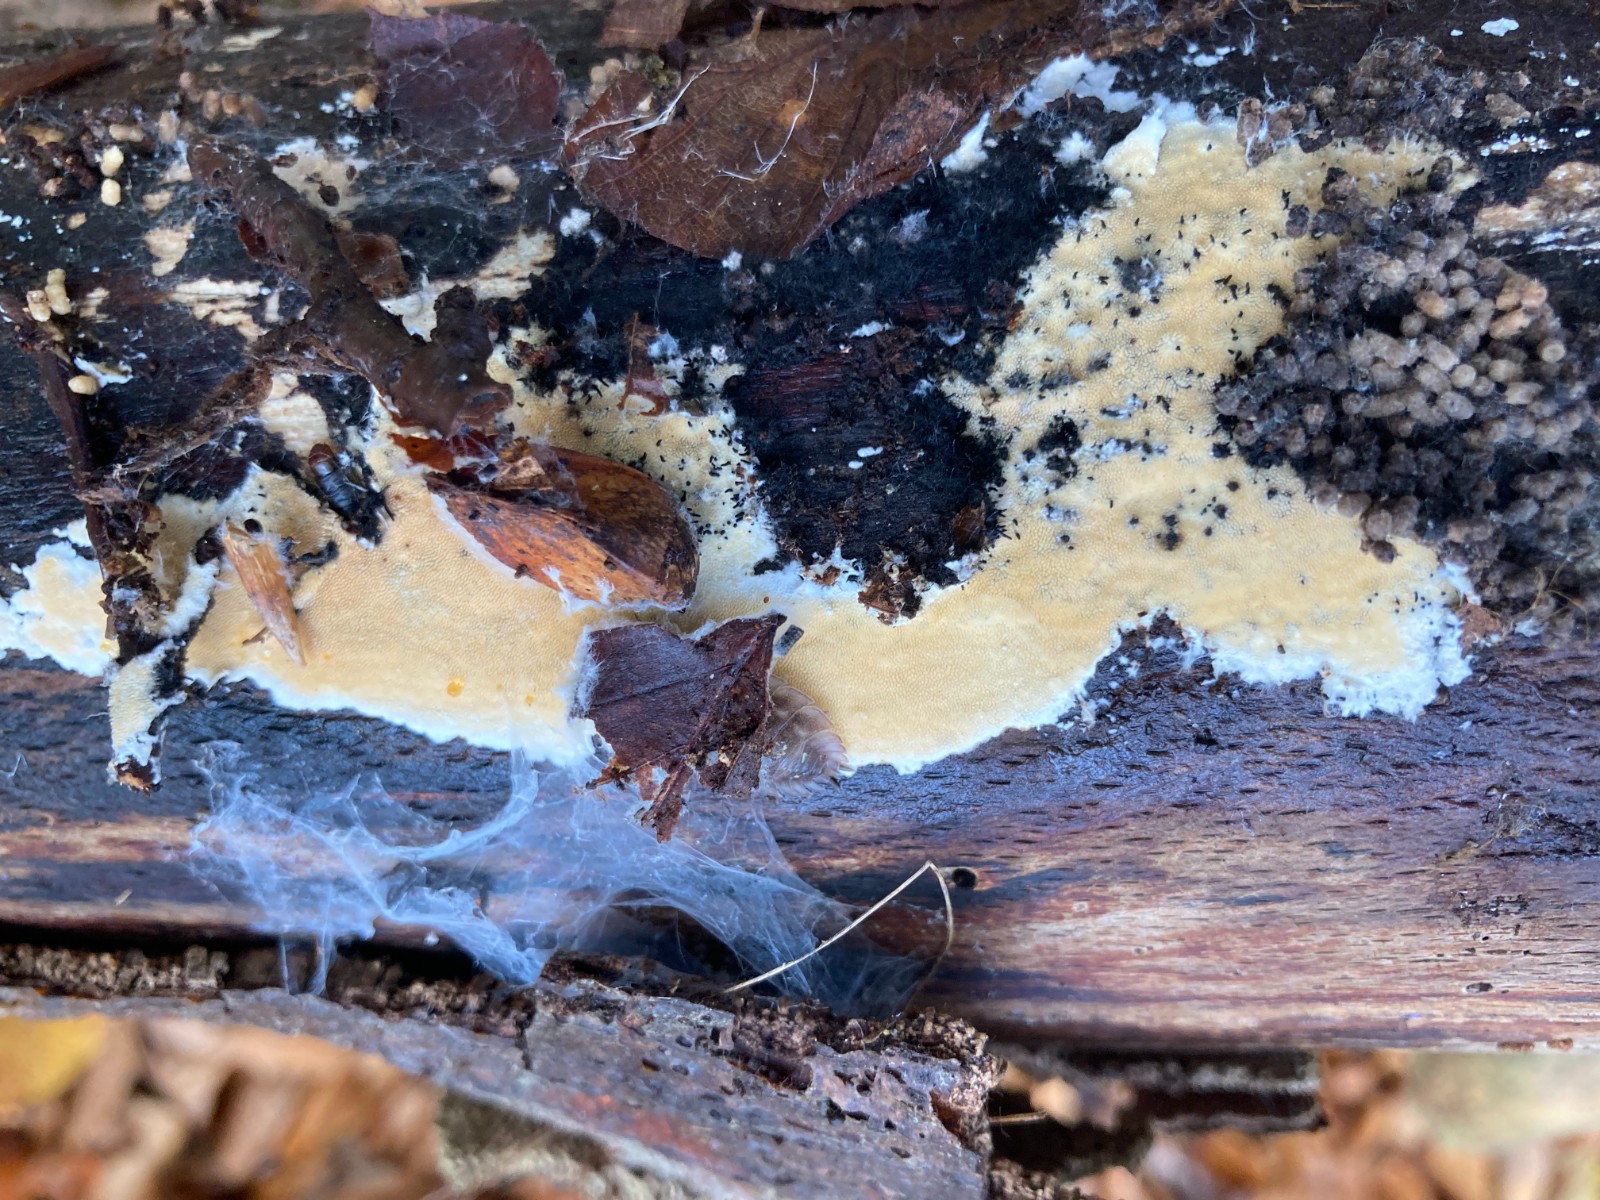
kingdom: Fungi
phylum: Basidiomycota
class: Agaricomycetes
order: Polyporales
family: Steccherinaceae
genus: Steccherinum
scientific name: Steccherinum ochraceum
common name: almindelig skønpig
